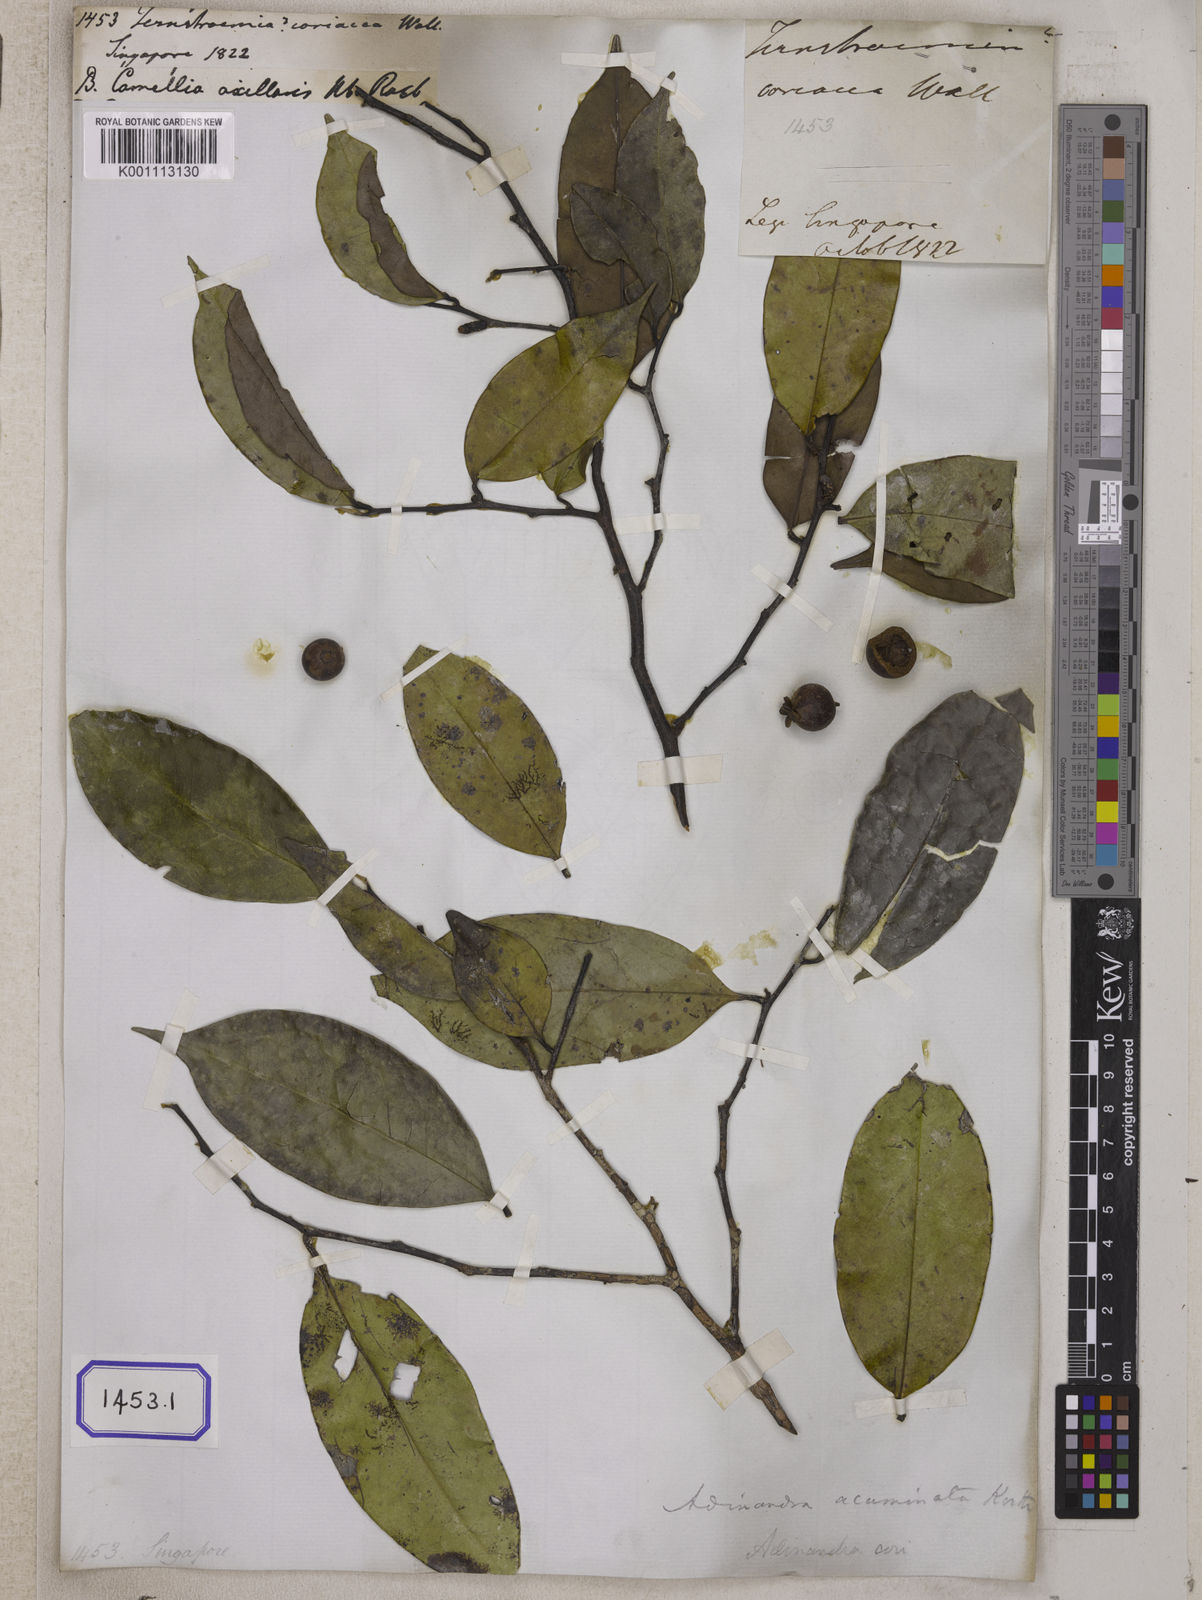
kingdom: Plantae
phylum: Tracheophyta
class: Magnoliopsida
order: Ericales
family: Pentaphylacaceae
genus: Adinandra
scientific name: Adinandra acuminata
